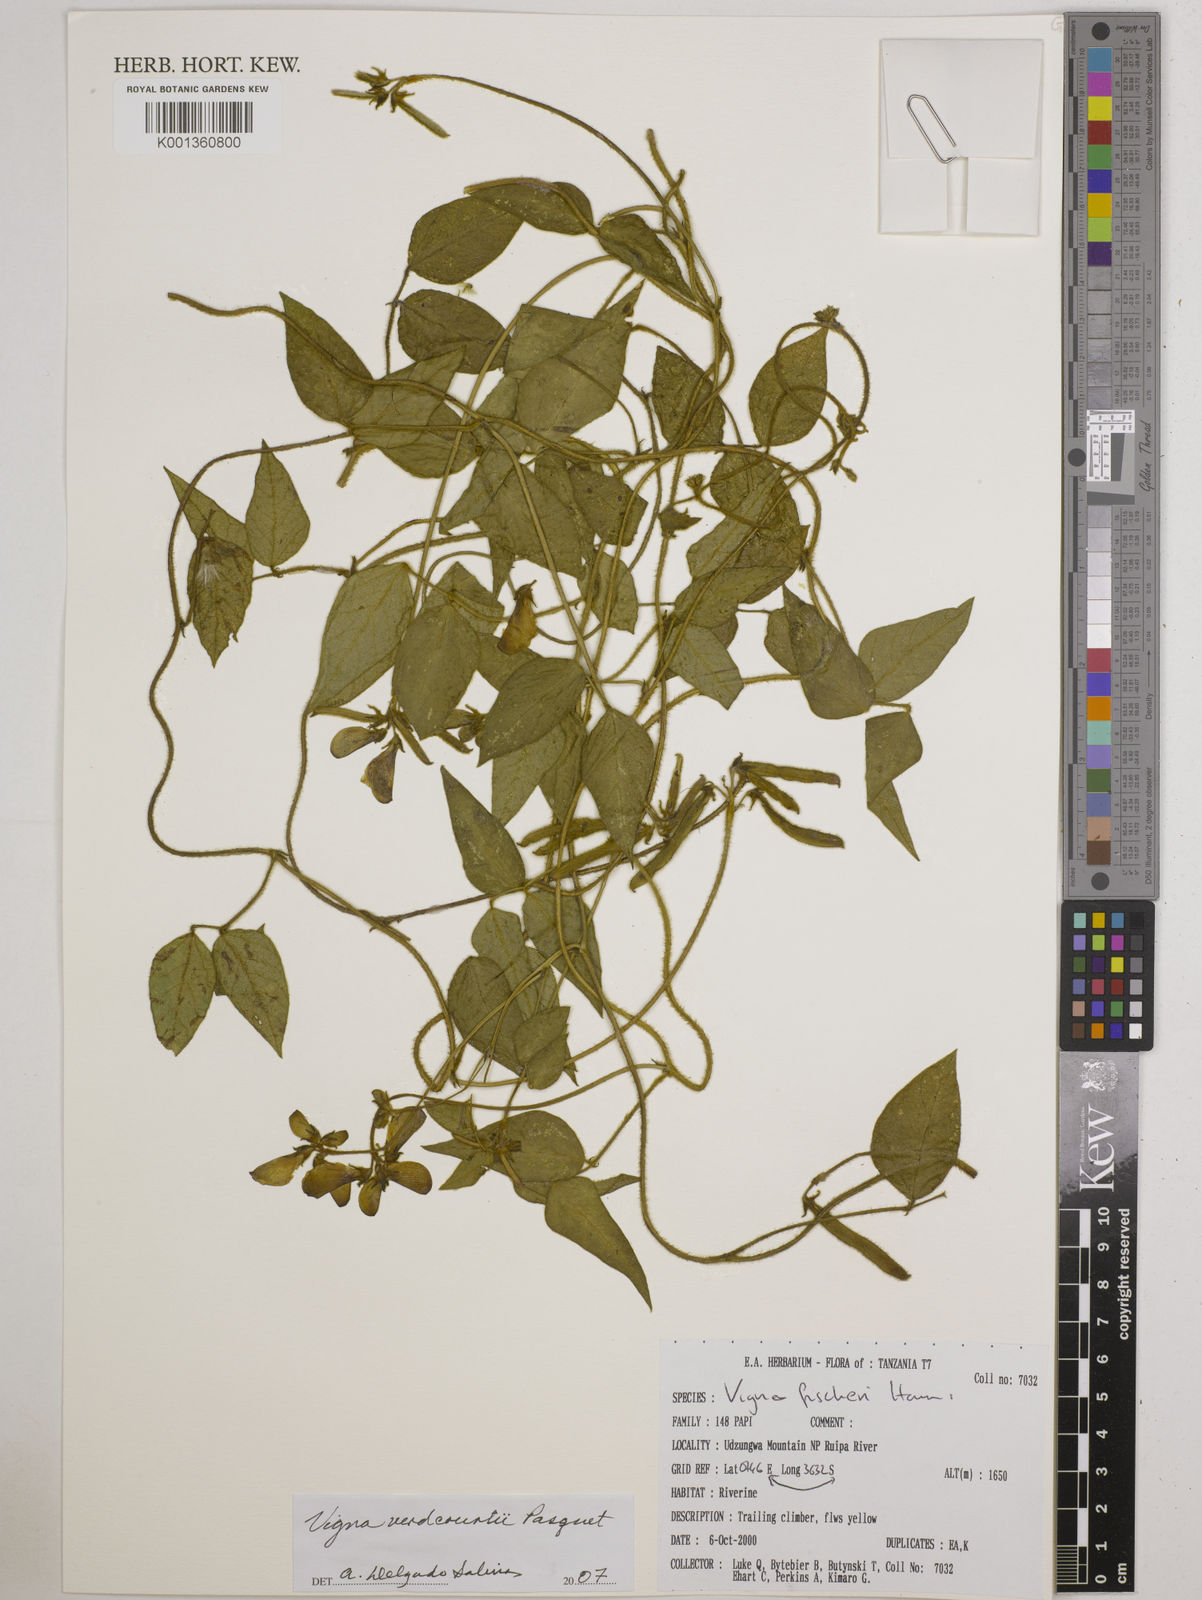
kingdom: Plantae
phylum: Tracheophyta
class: Magnoliopsida
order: Fabales
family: Fabaceae
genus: Vigna
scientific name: Vigna
